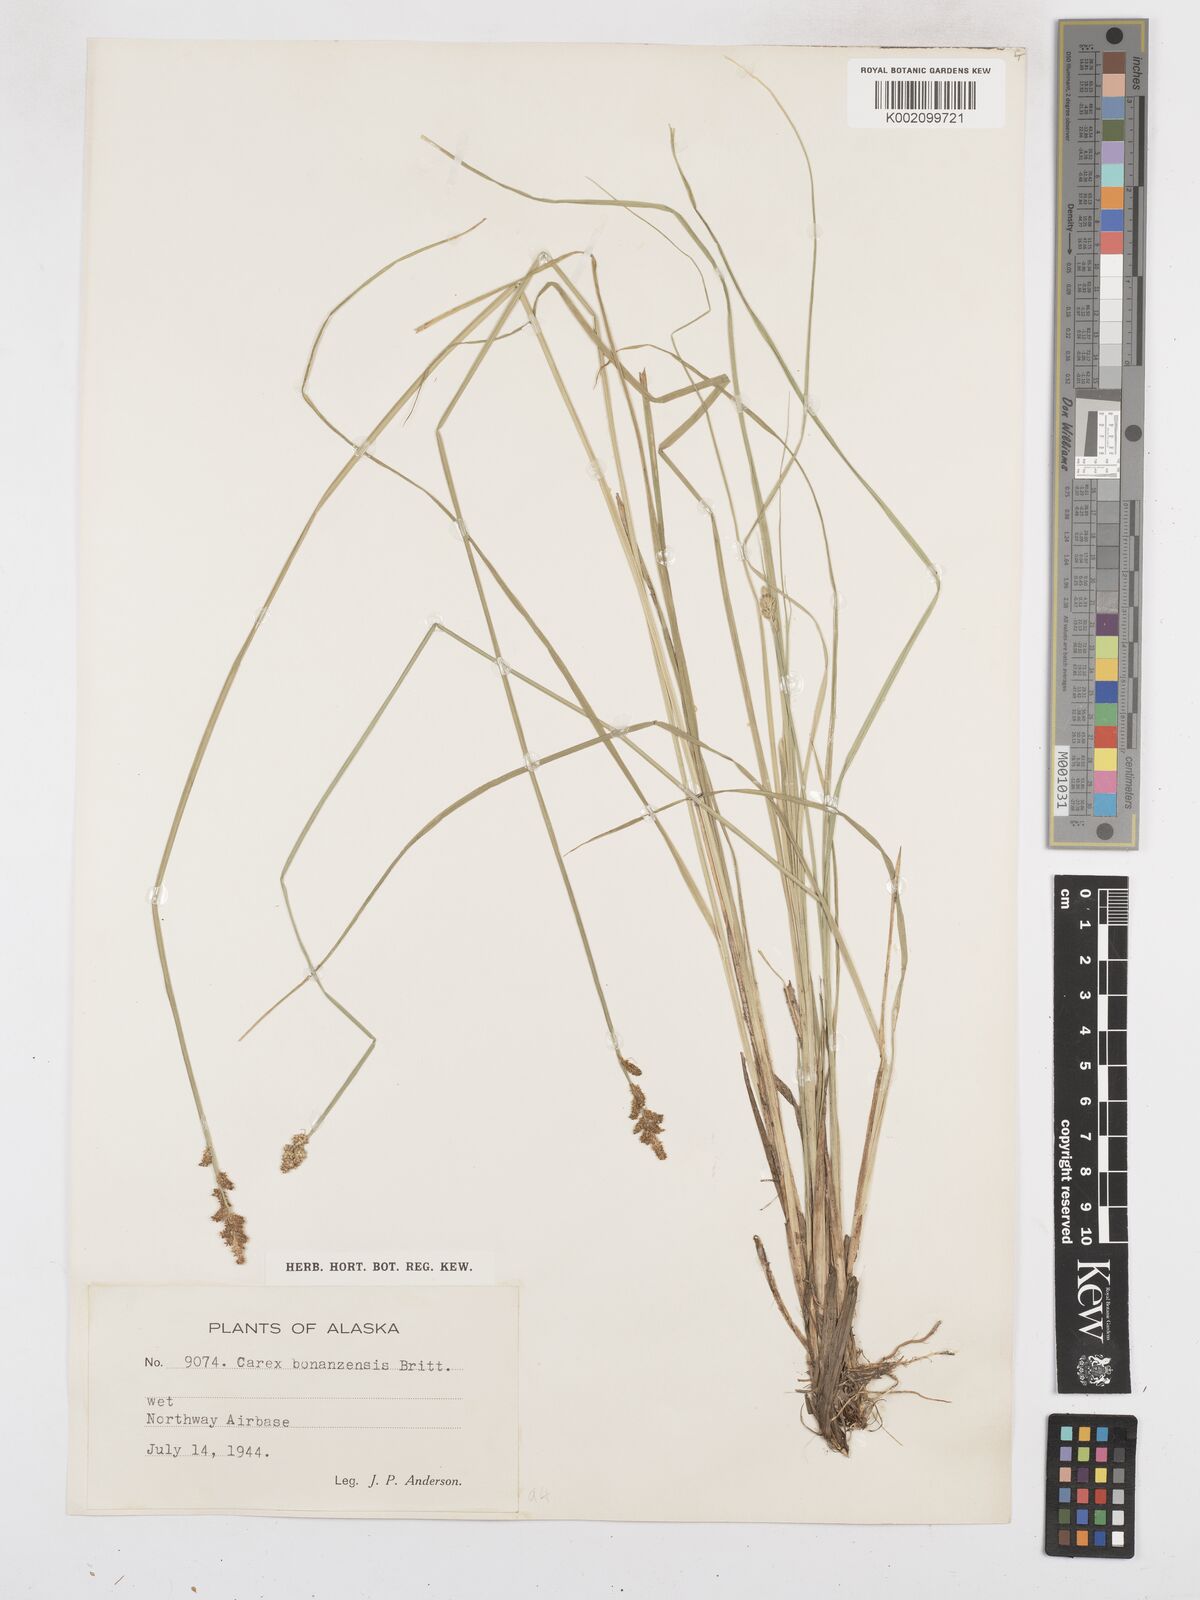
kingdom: Plantae
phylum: Tracheophyta
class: Liliopsida
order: Poales
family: Cyperaceae
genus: Carex
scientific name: Carex bonanzensis
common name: Yukon sedge
